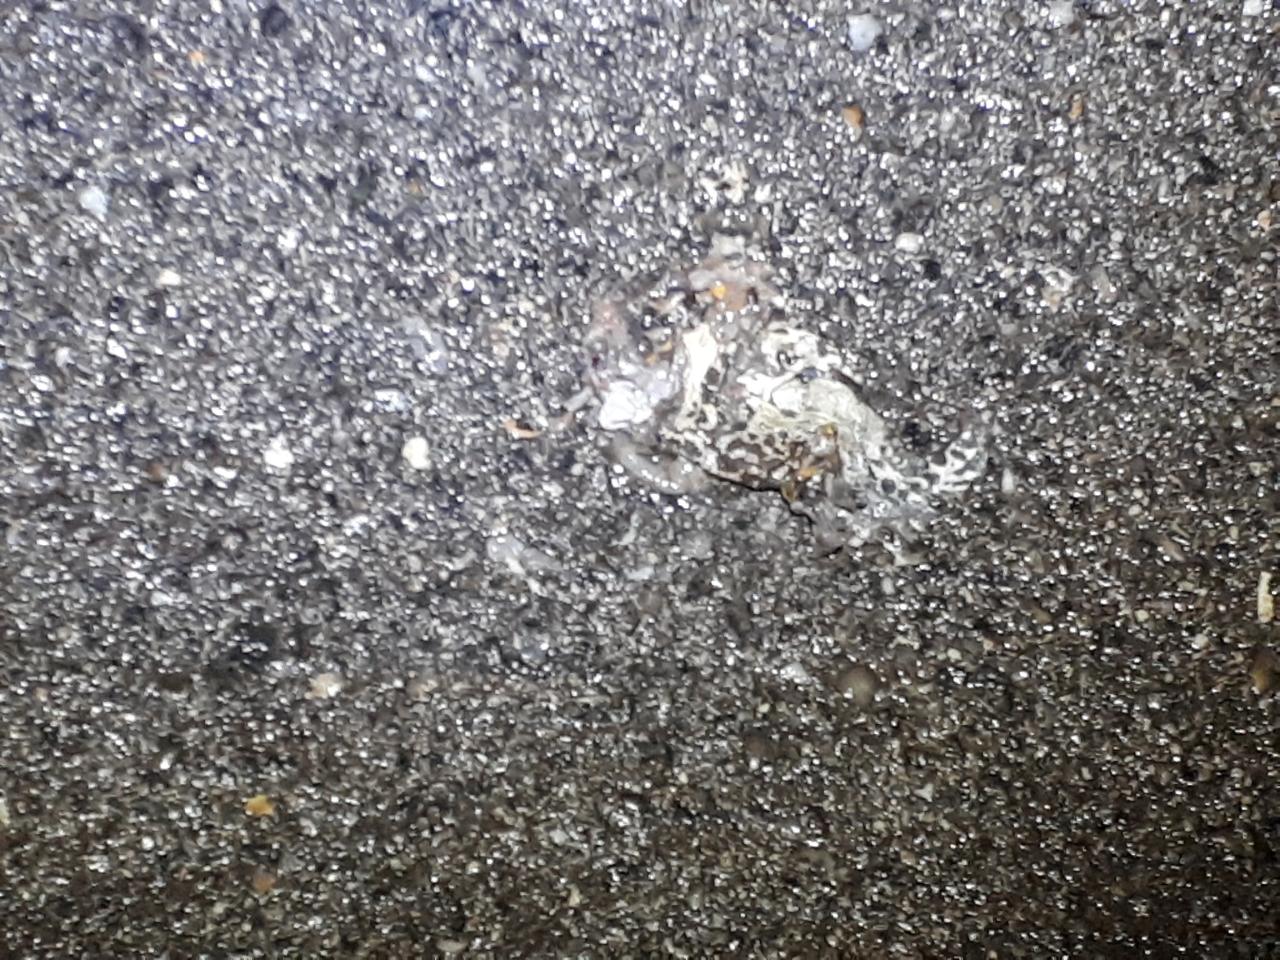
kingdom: Animalia
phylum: Chordata
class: Amphibia
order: Anura
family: Bufonidae
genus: Bufotes
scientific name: Bufotes viridis
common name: European green toad
